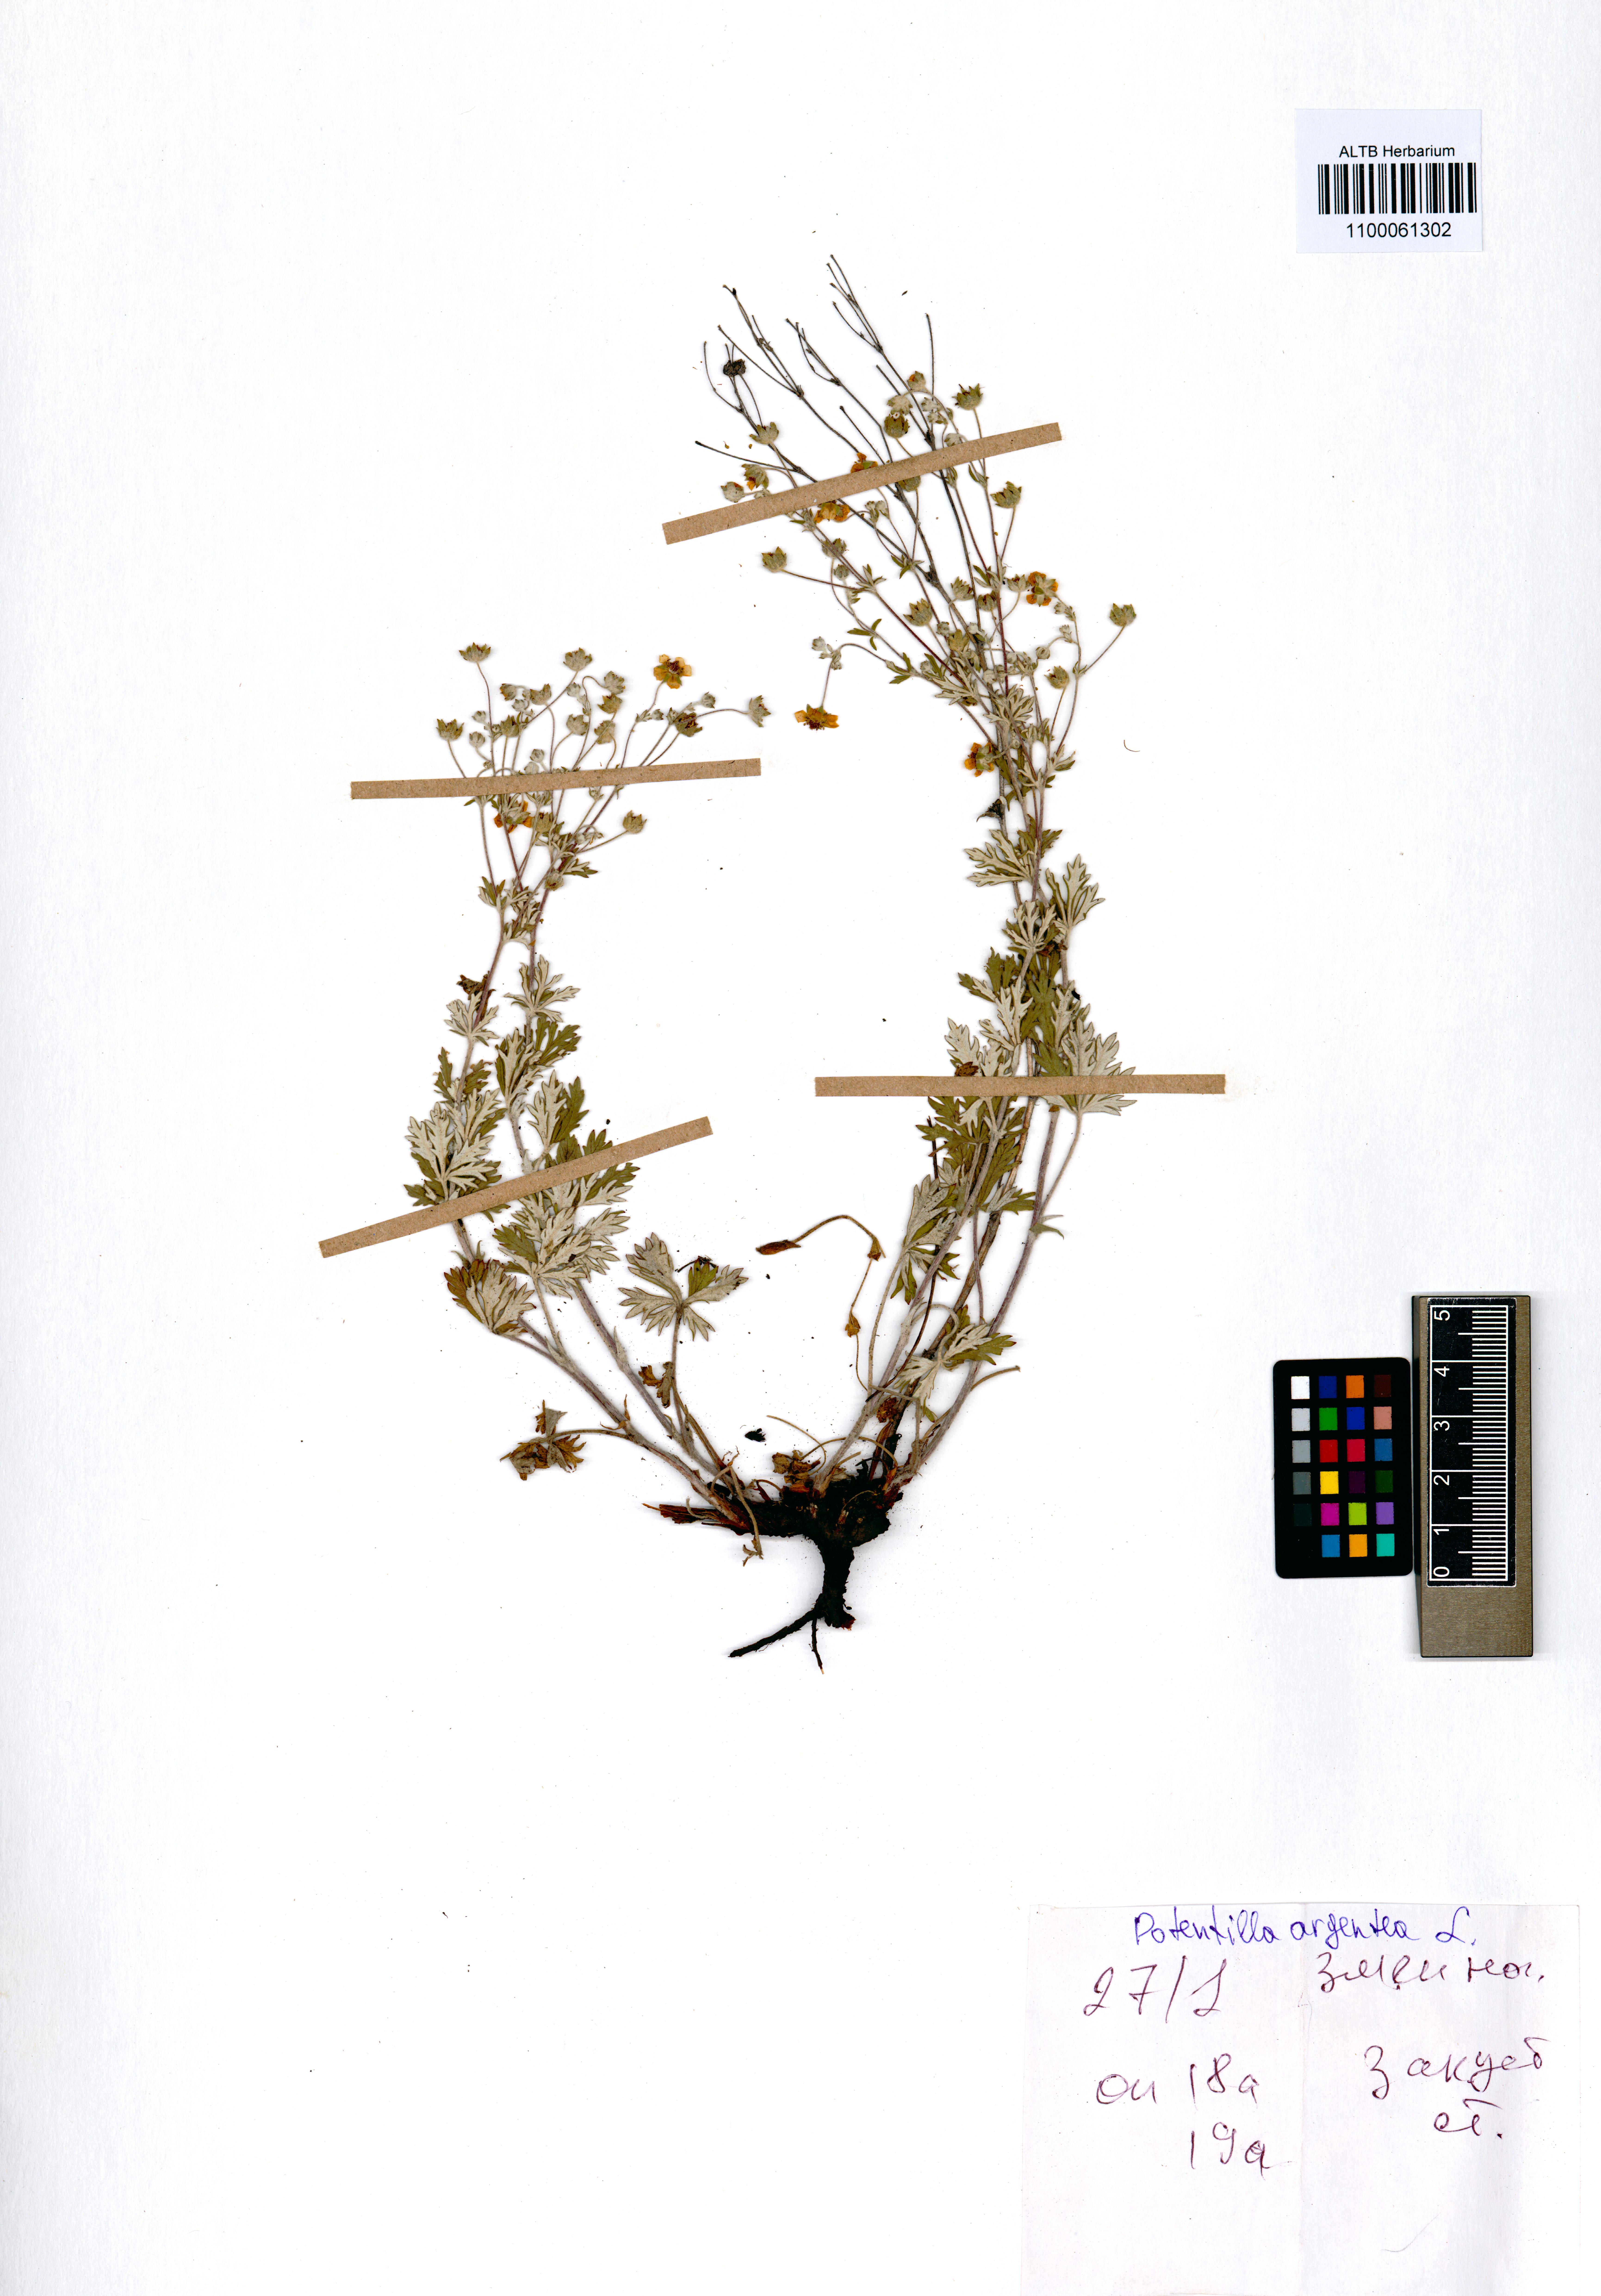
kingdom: Plantae
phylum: Tracheophyta
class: Magnoliopsida
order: Rosales
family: Rosaceae
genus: Potentilla
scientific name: Potentilla argentea
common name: Hoary cinquefoil
